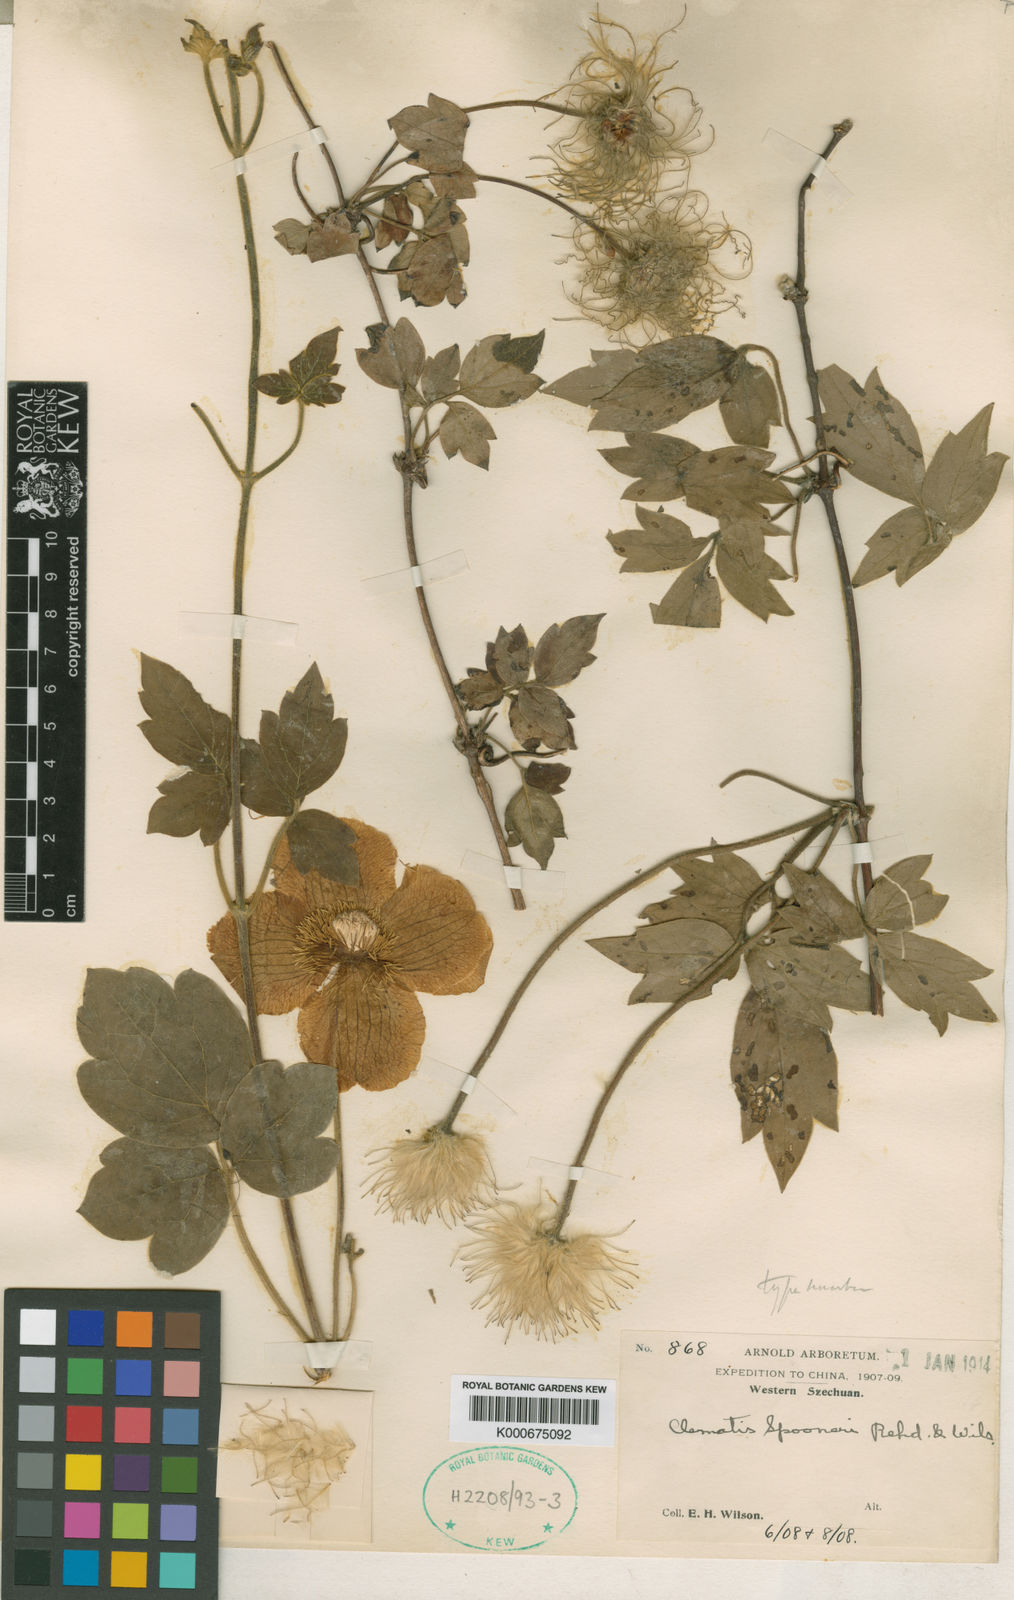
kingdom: Plantae
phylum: Tracheophyta
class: Magnoliopsida
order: Ranunculales
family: Ranunculaceae
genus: Clematis
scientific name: Clematis chrysocoma
